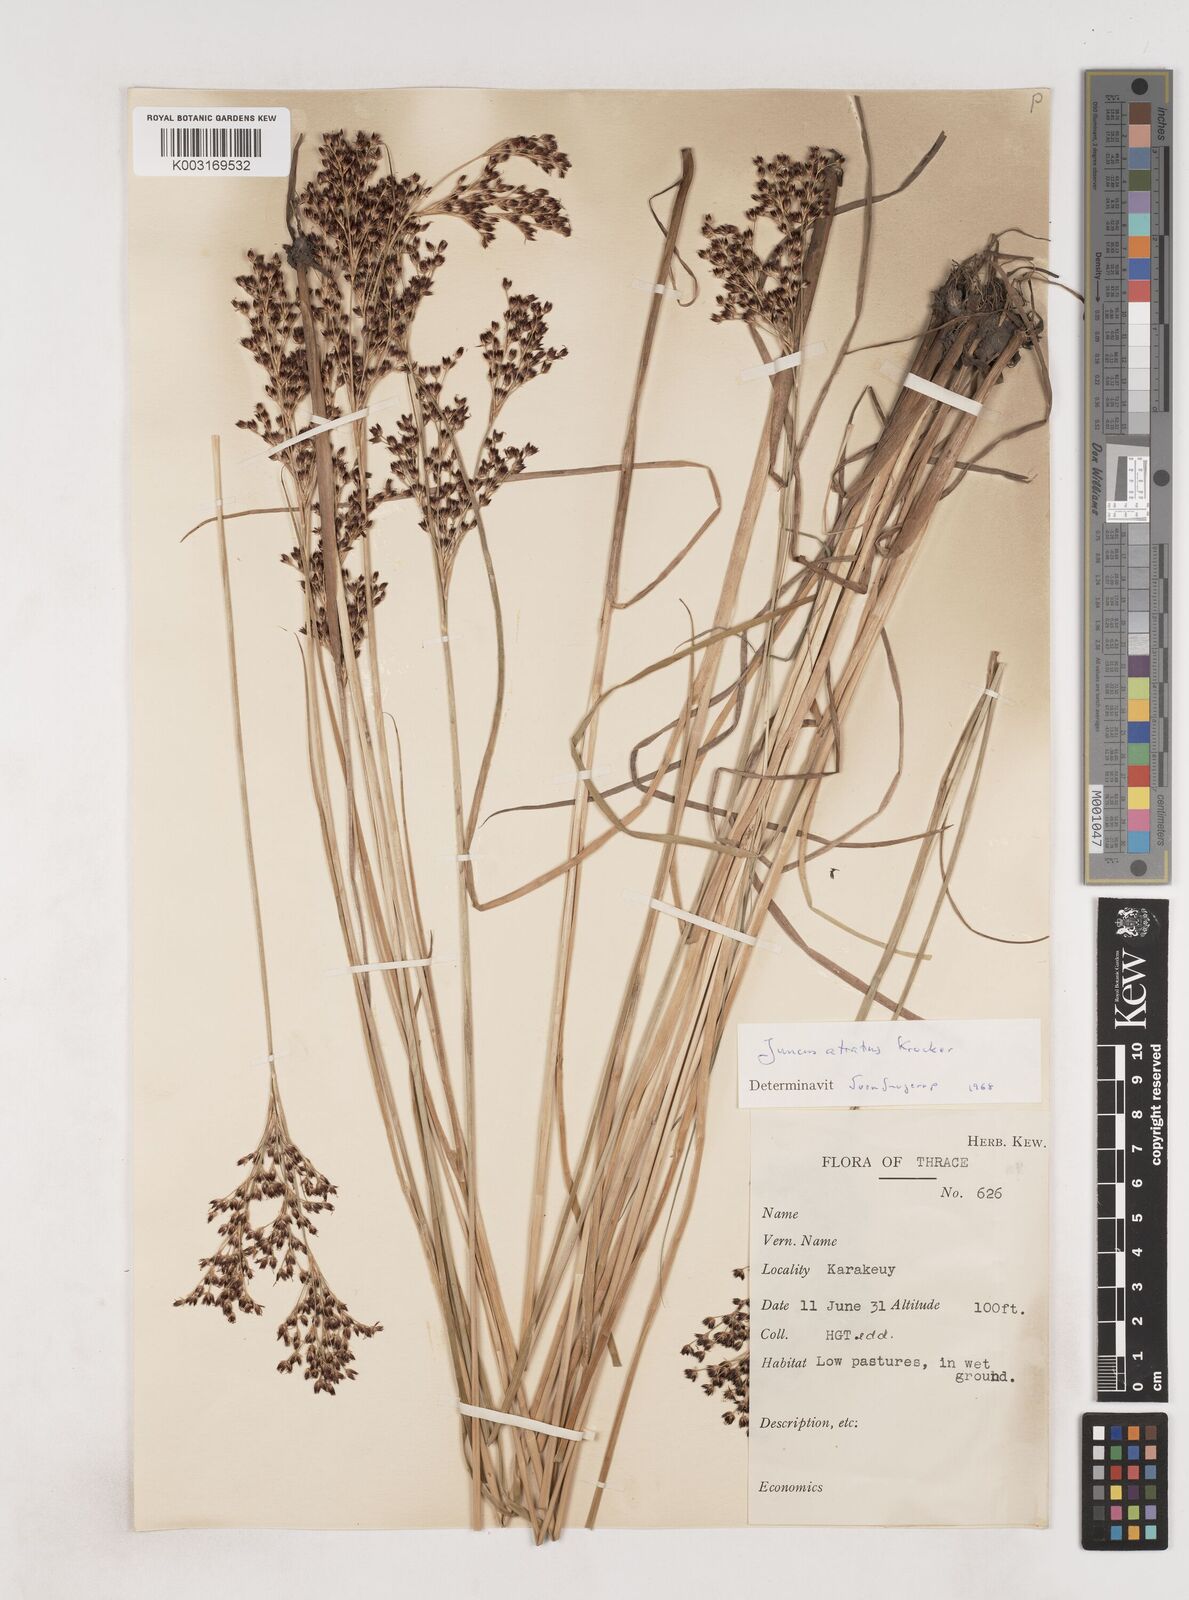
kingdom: Plantae
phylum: Tracheophyta
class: Liliopsida
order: Poales
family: Juncaceae
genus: Juncus
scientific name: Juncus atratus
